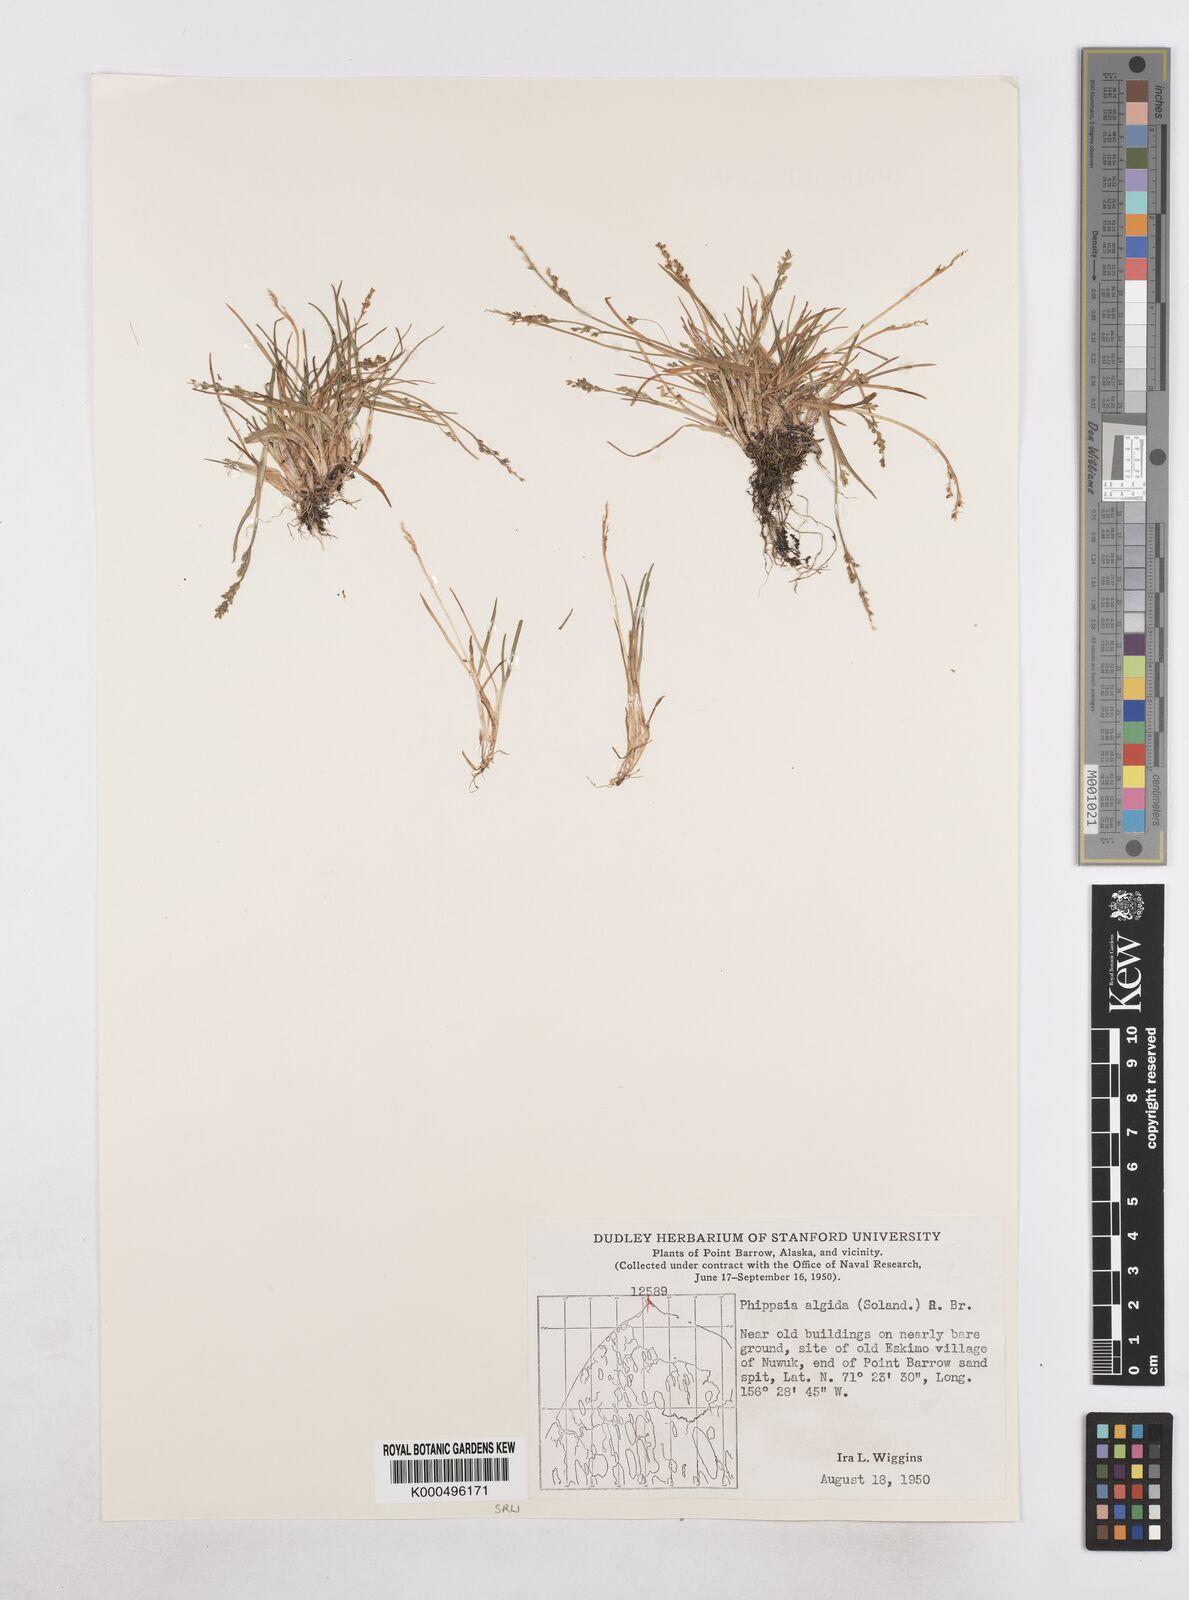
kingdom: Plantae
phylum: Tracheophyta
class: Liliopsida
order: Poales
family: Poaceae
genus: Phippsia
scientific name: Phippsia algida
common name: Ice grass
